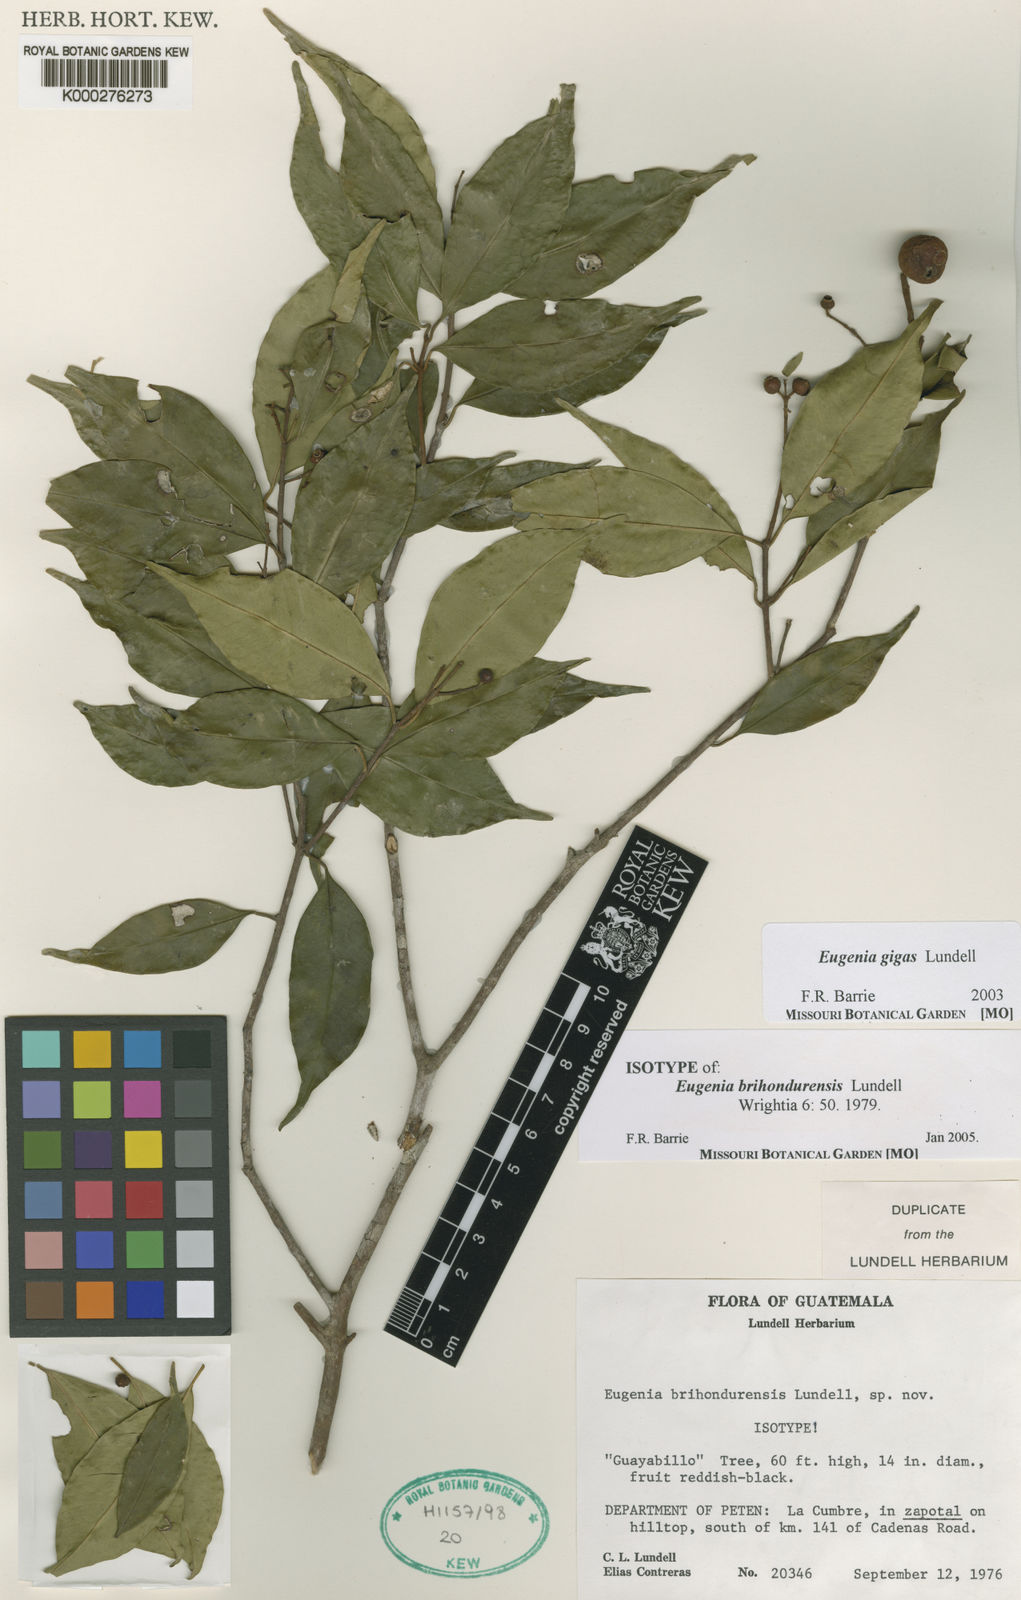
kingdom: Plantae
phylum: Tracheophyta
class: Magnoliopsida
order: Myrtales
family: Myrtaceae
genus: Eugenia
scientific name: Eugenia gigas
